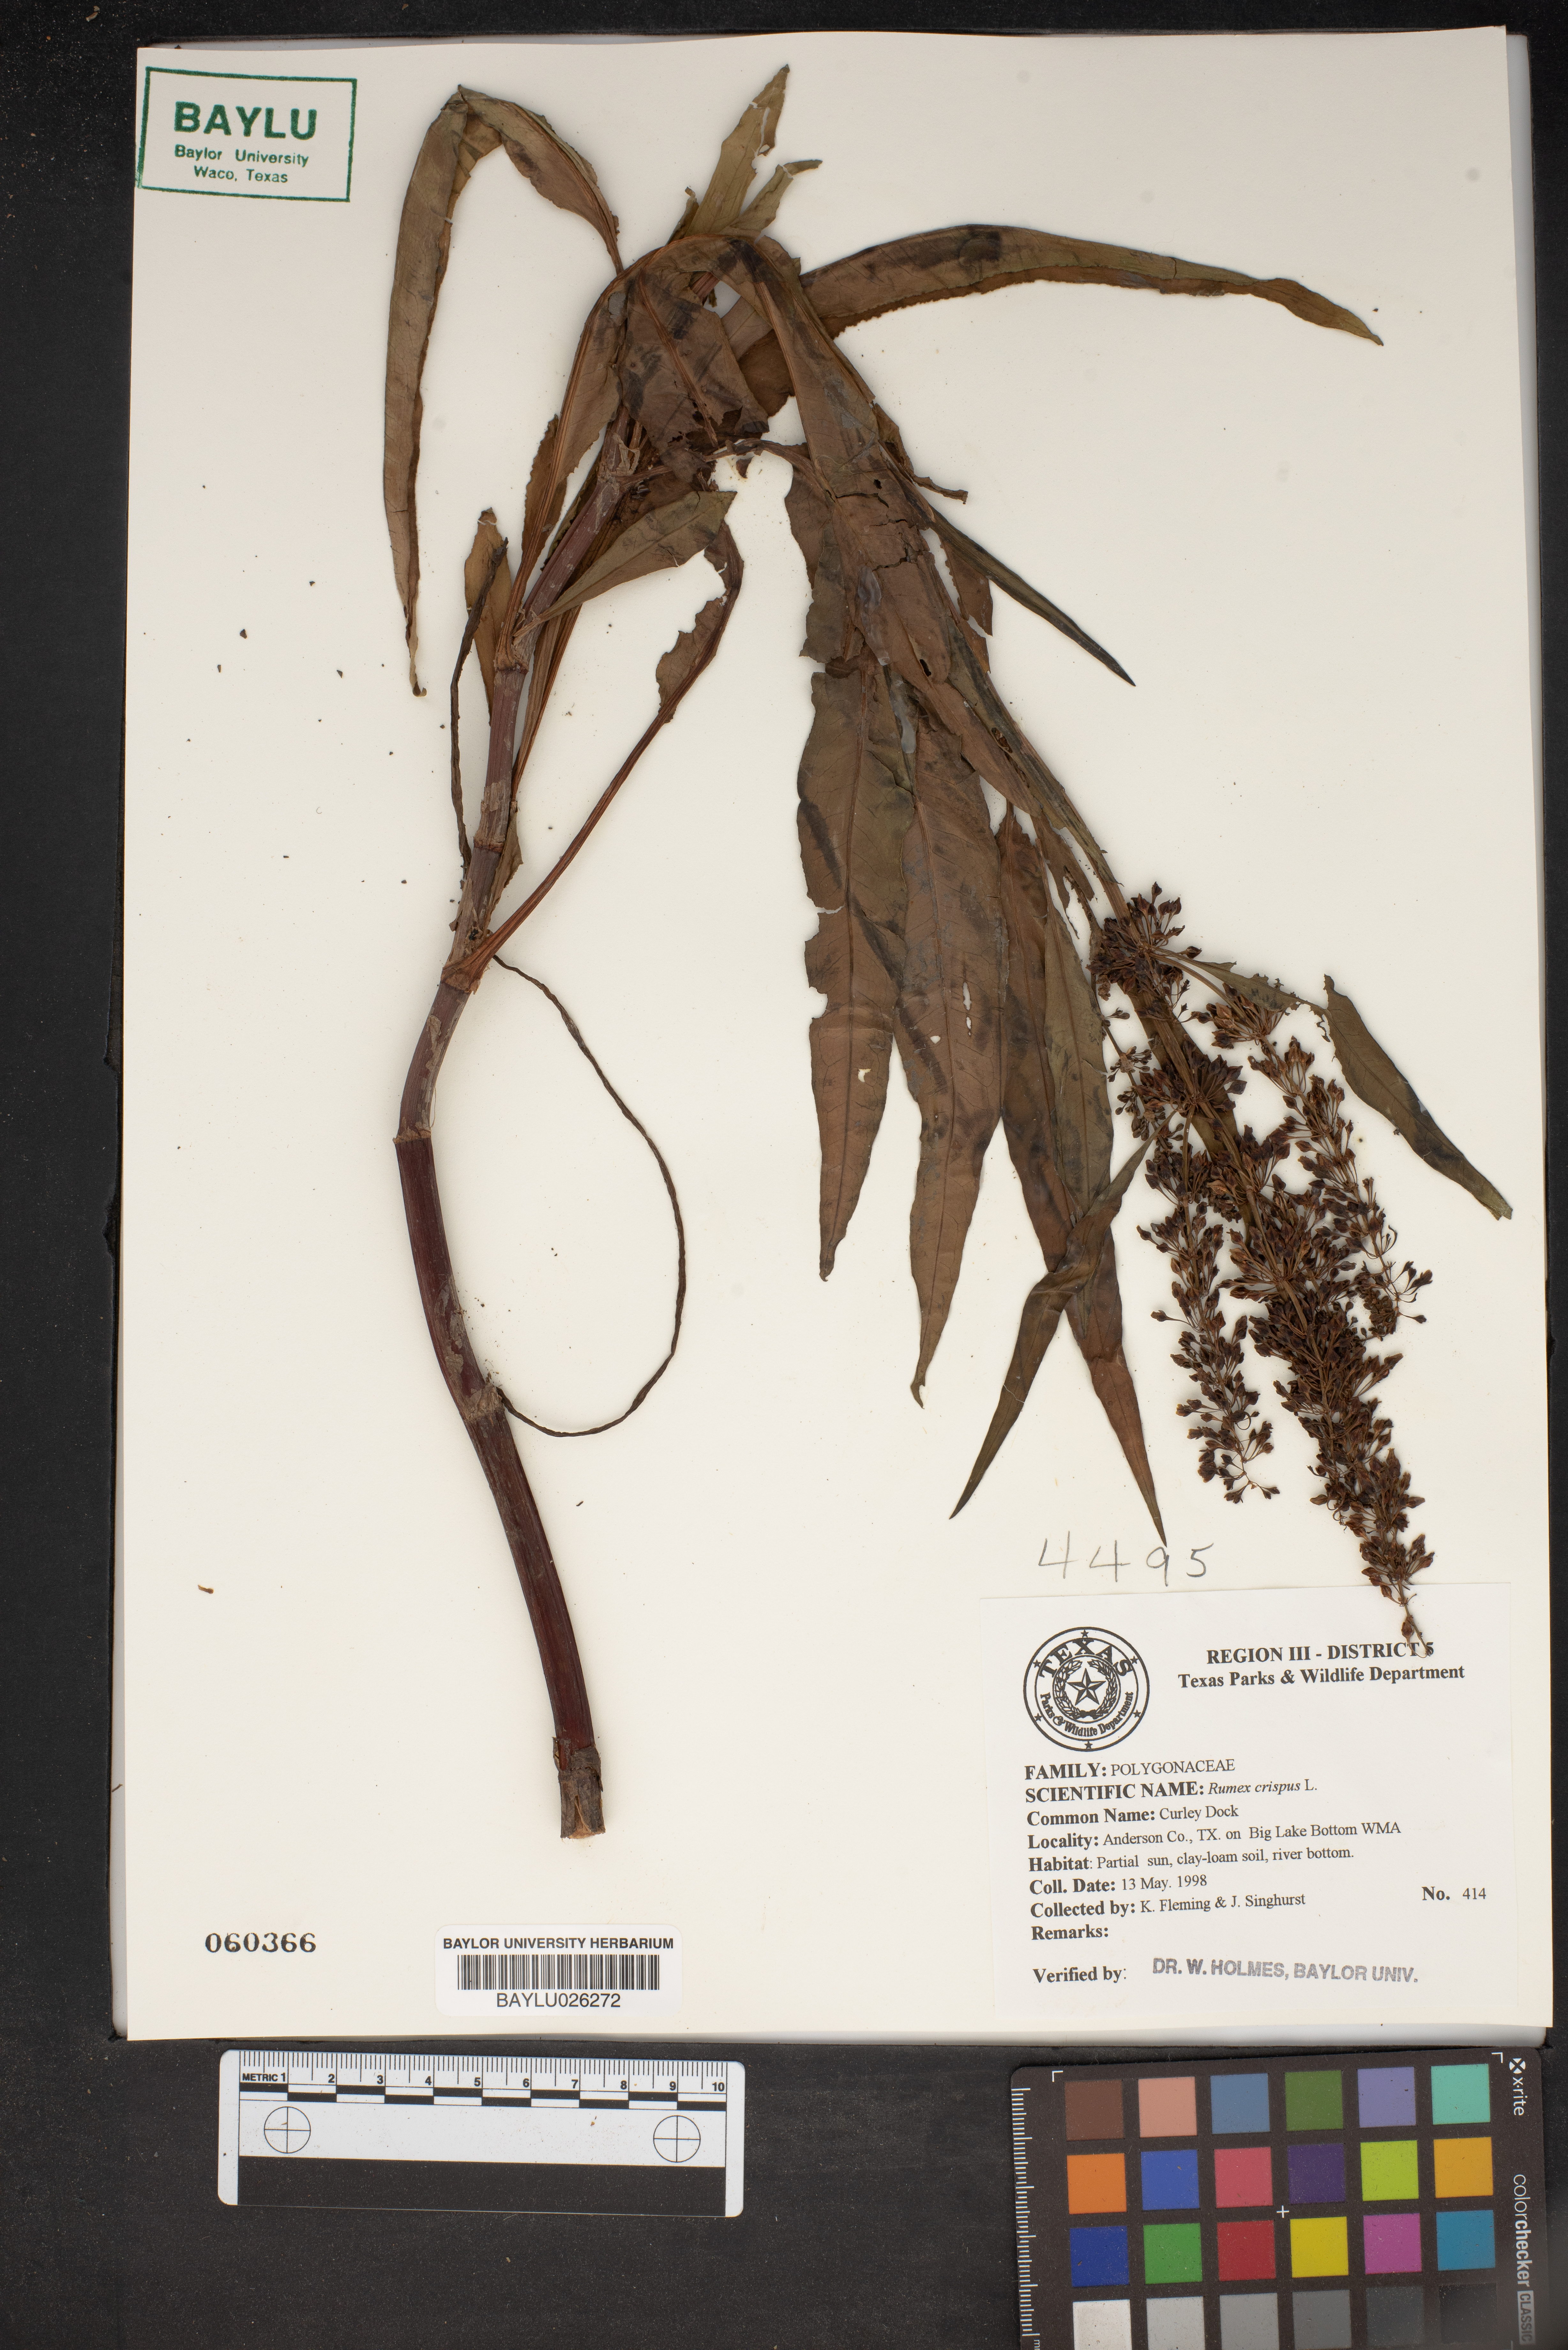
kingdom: Plantae
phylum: Tracheophyta
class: Magnoliopsida
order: Caryophyllales
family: Polygonaceae
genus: Rumex
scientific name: Rumex crispus
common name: Curled dock
